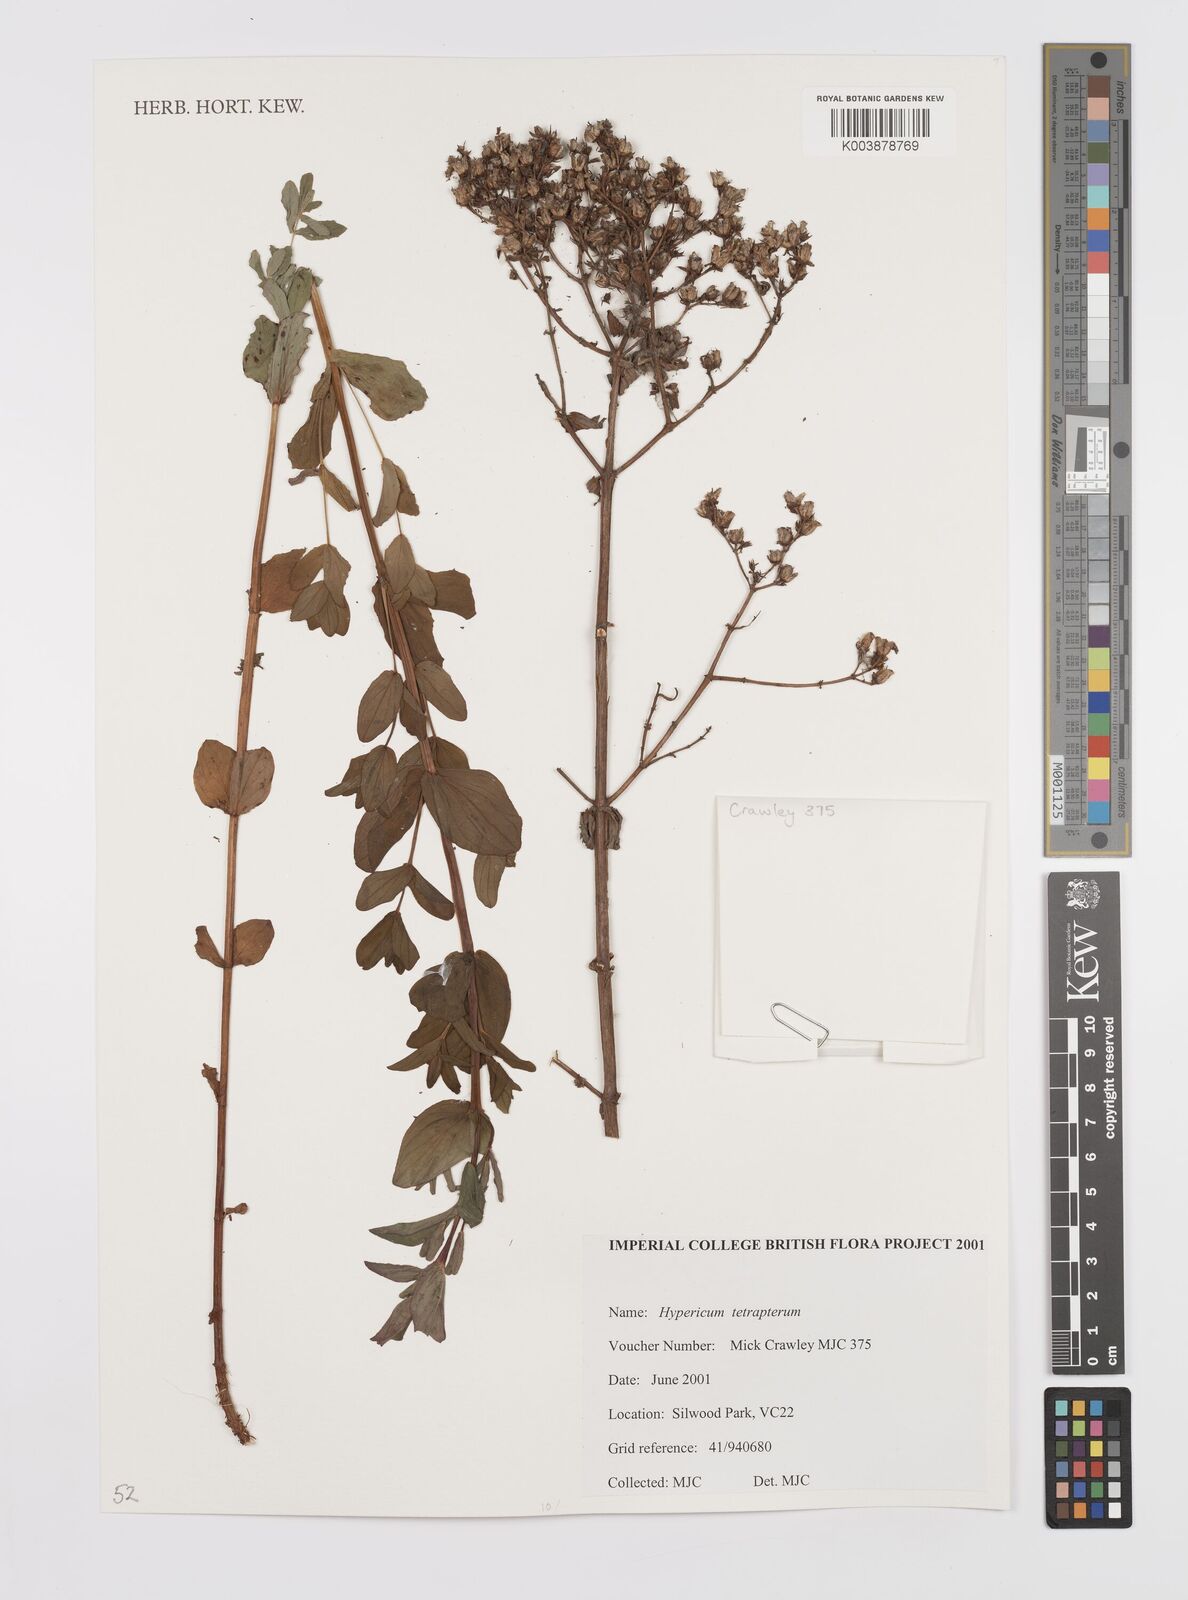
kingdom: Plantae
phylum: Tracheophyta
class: Magnoliopsida
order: Malpighiales
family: Hypericaceae
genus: Hypericum
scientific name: Hypericum tetrapterum
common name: Square-stalked st. john's-wort
